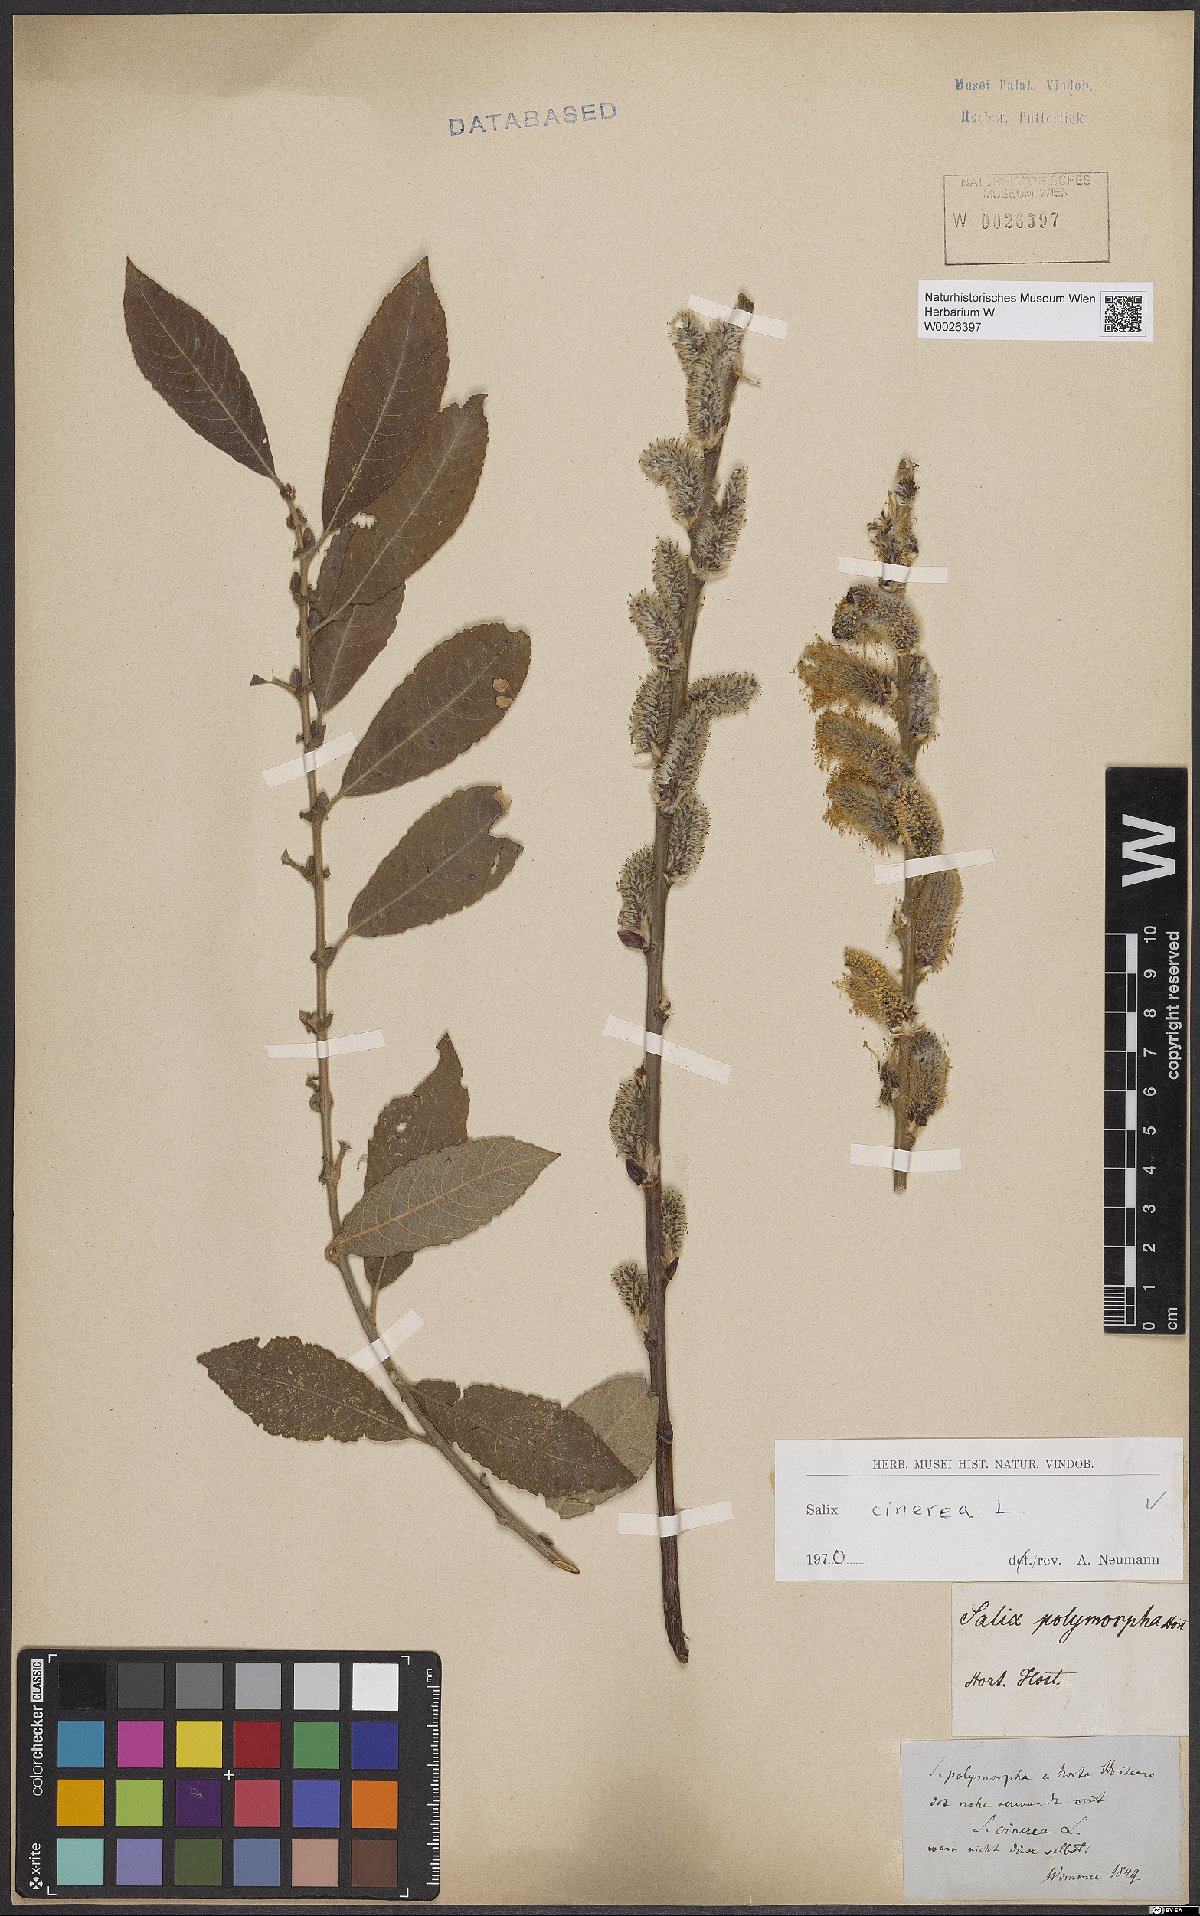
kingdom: Plantae
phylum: Tracheophyta
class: Magnoliopsida
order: Malpighiales
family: Salicaceae
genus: Salix
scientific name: Salix cinerea
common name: Common sallow
